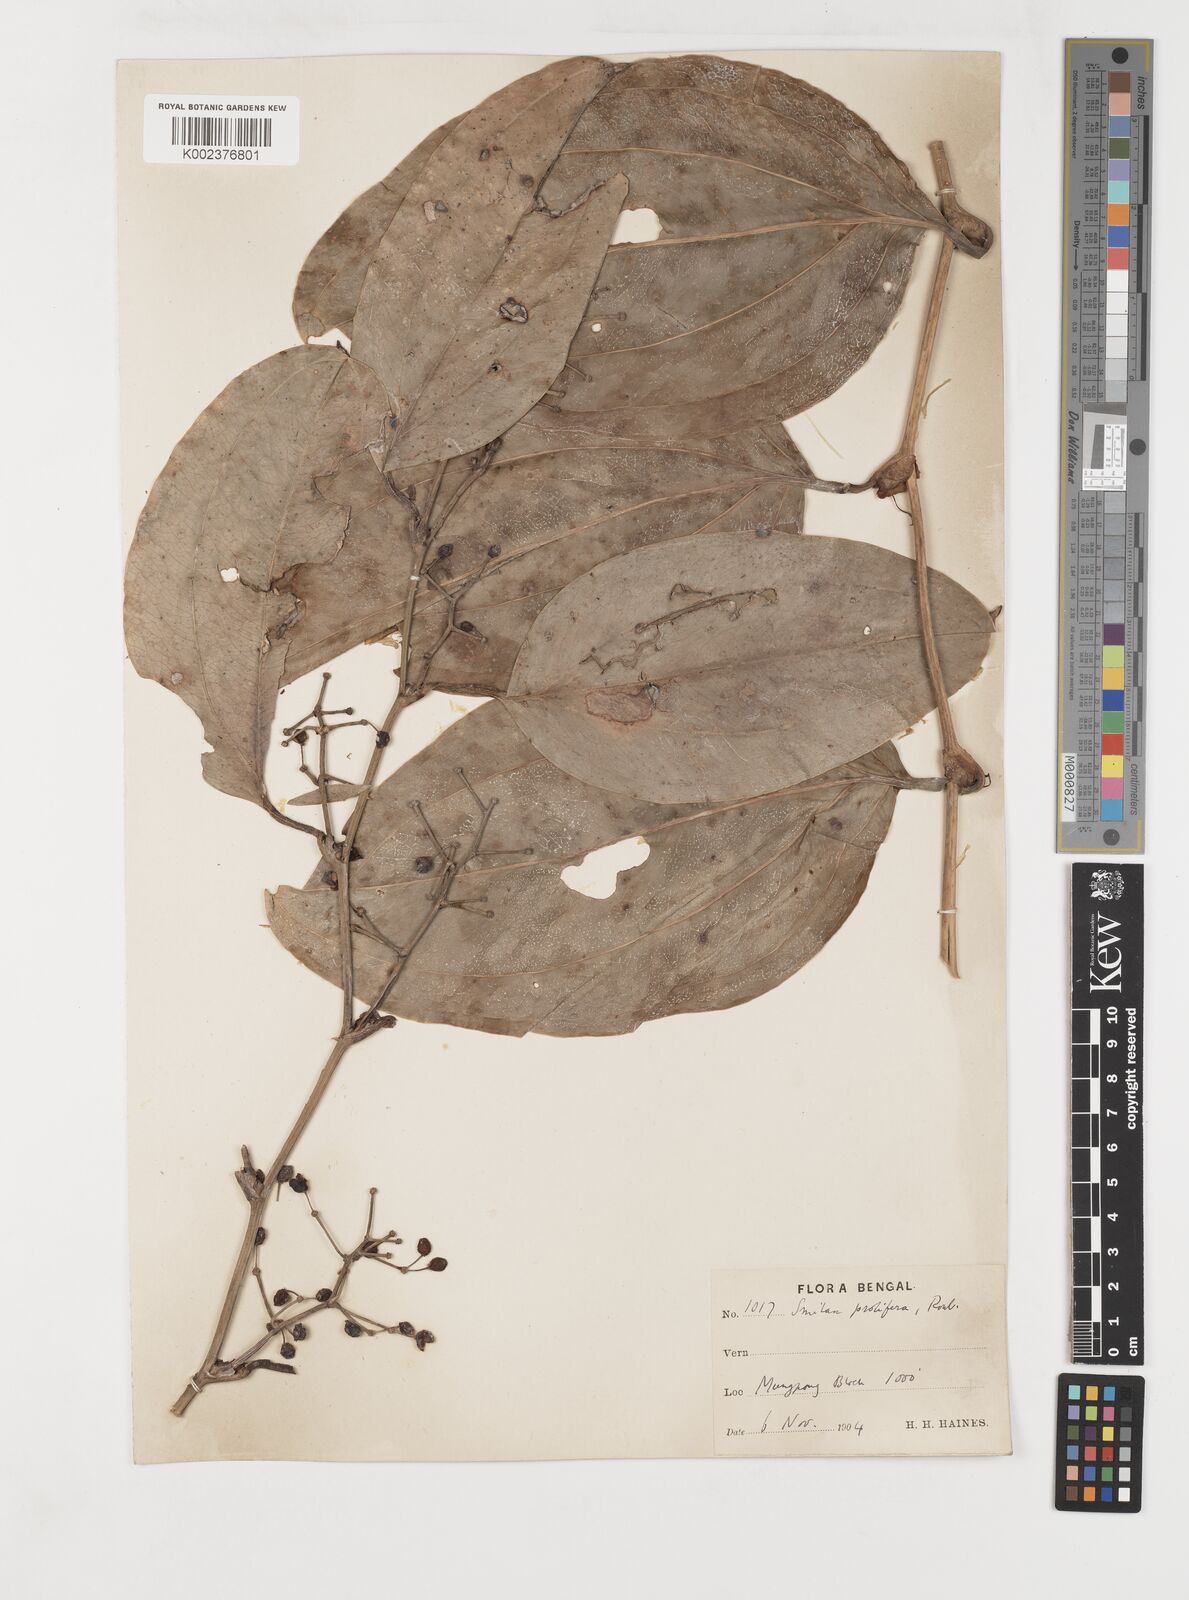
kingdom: Plantae
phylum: Tracheophyta
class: Liliopsida
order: Liliales
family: Smilacaceae
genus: Smilax
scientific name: Smilax prolifera
